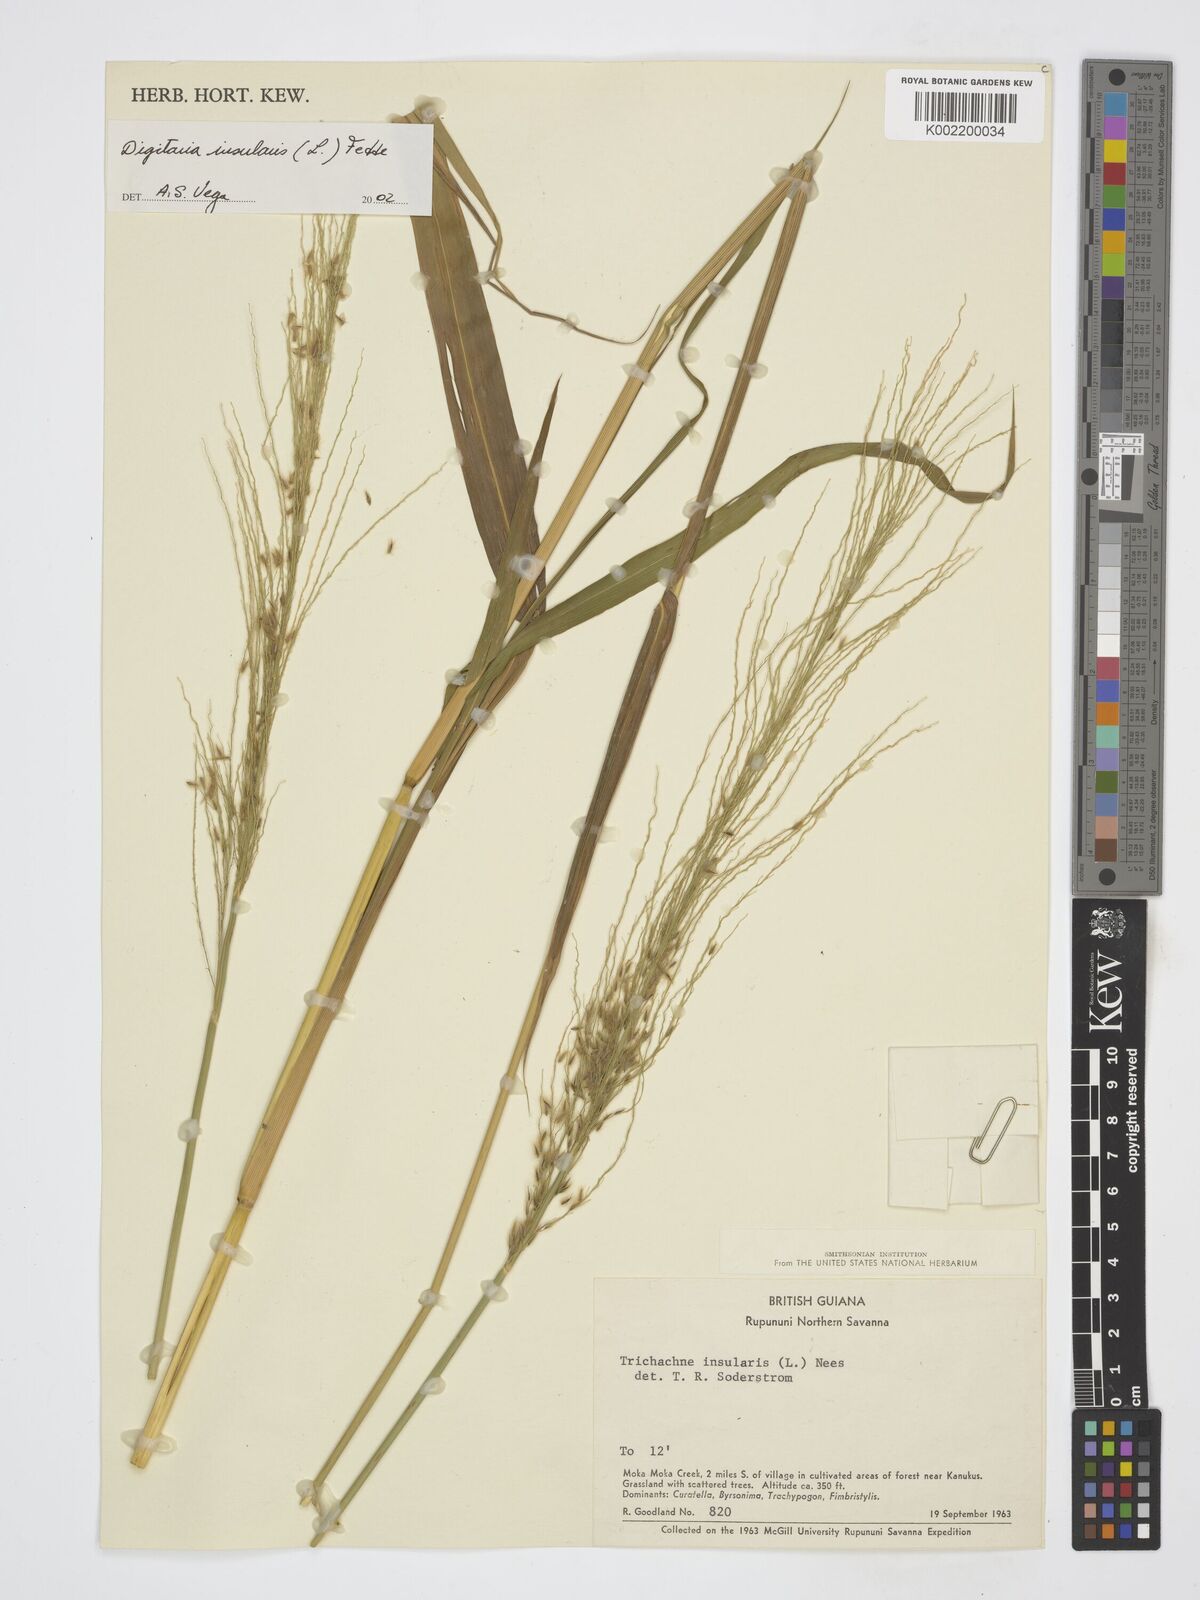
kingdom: Plantae
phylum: Tracheophyta
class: Liliopsida
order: Poales
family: Poaceae
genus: Digitaria
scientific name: Digitaria insularis
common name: Sourgrass
